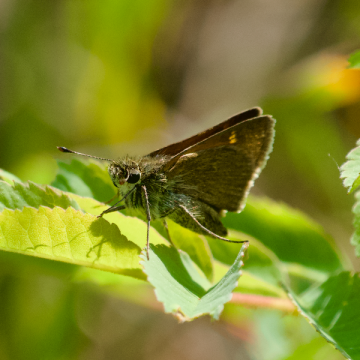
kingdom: Animalia
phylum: Arthropoda
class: Insecta
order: Lepidoptera
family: Hesperiidae
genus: Polites
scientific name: Polites themistocles
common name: Tawny-edged Skipper
